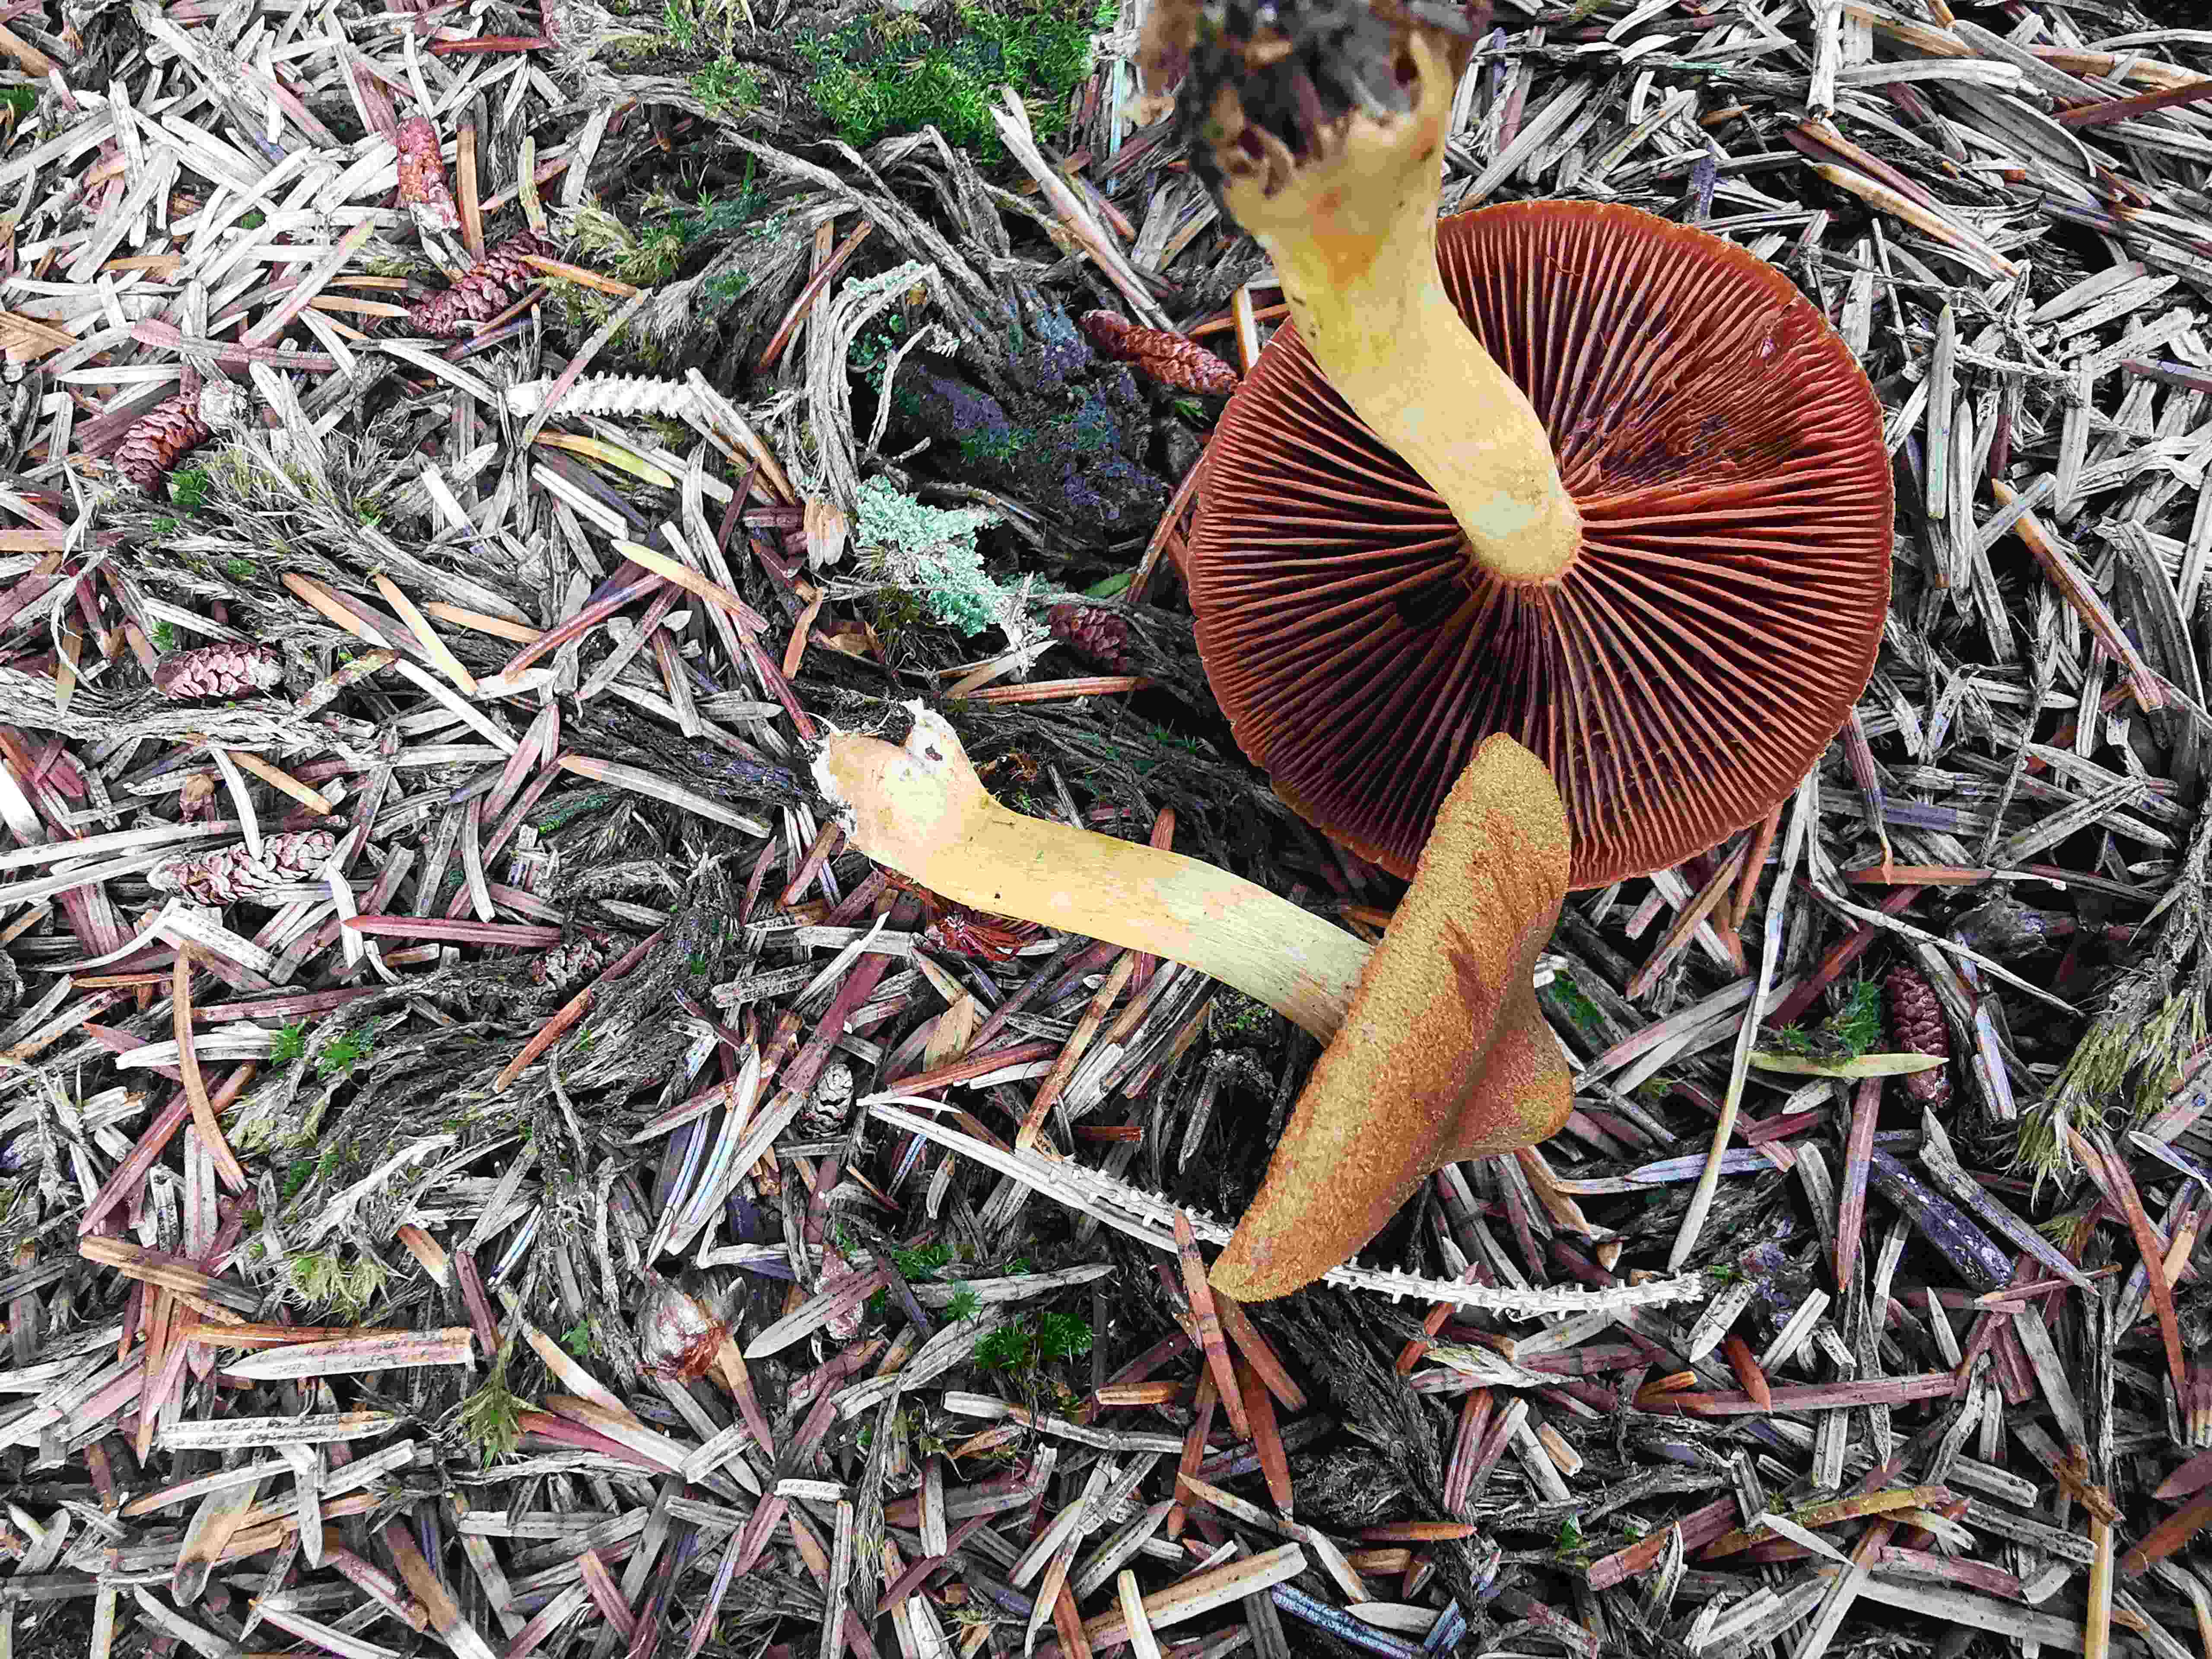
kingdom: Fungi
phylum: Basidiomycota
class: Agaricomycetes
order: Agaricales
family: Cortinariaceae
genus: Cortinarius
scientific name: Cortinarius
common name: cinnoberbladet slørhat
